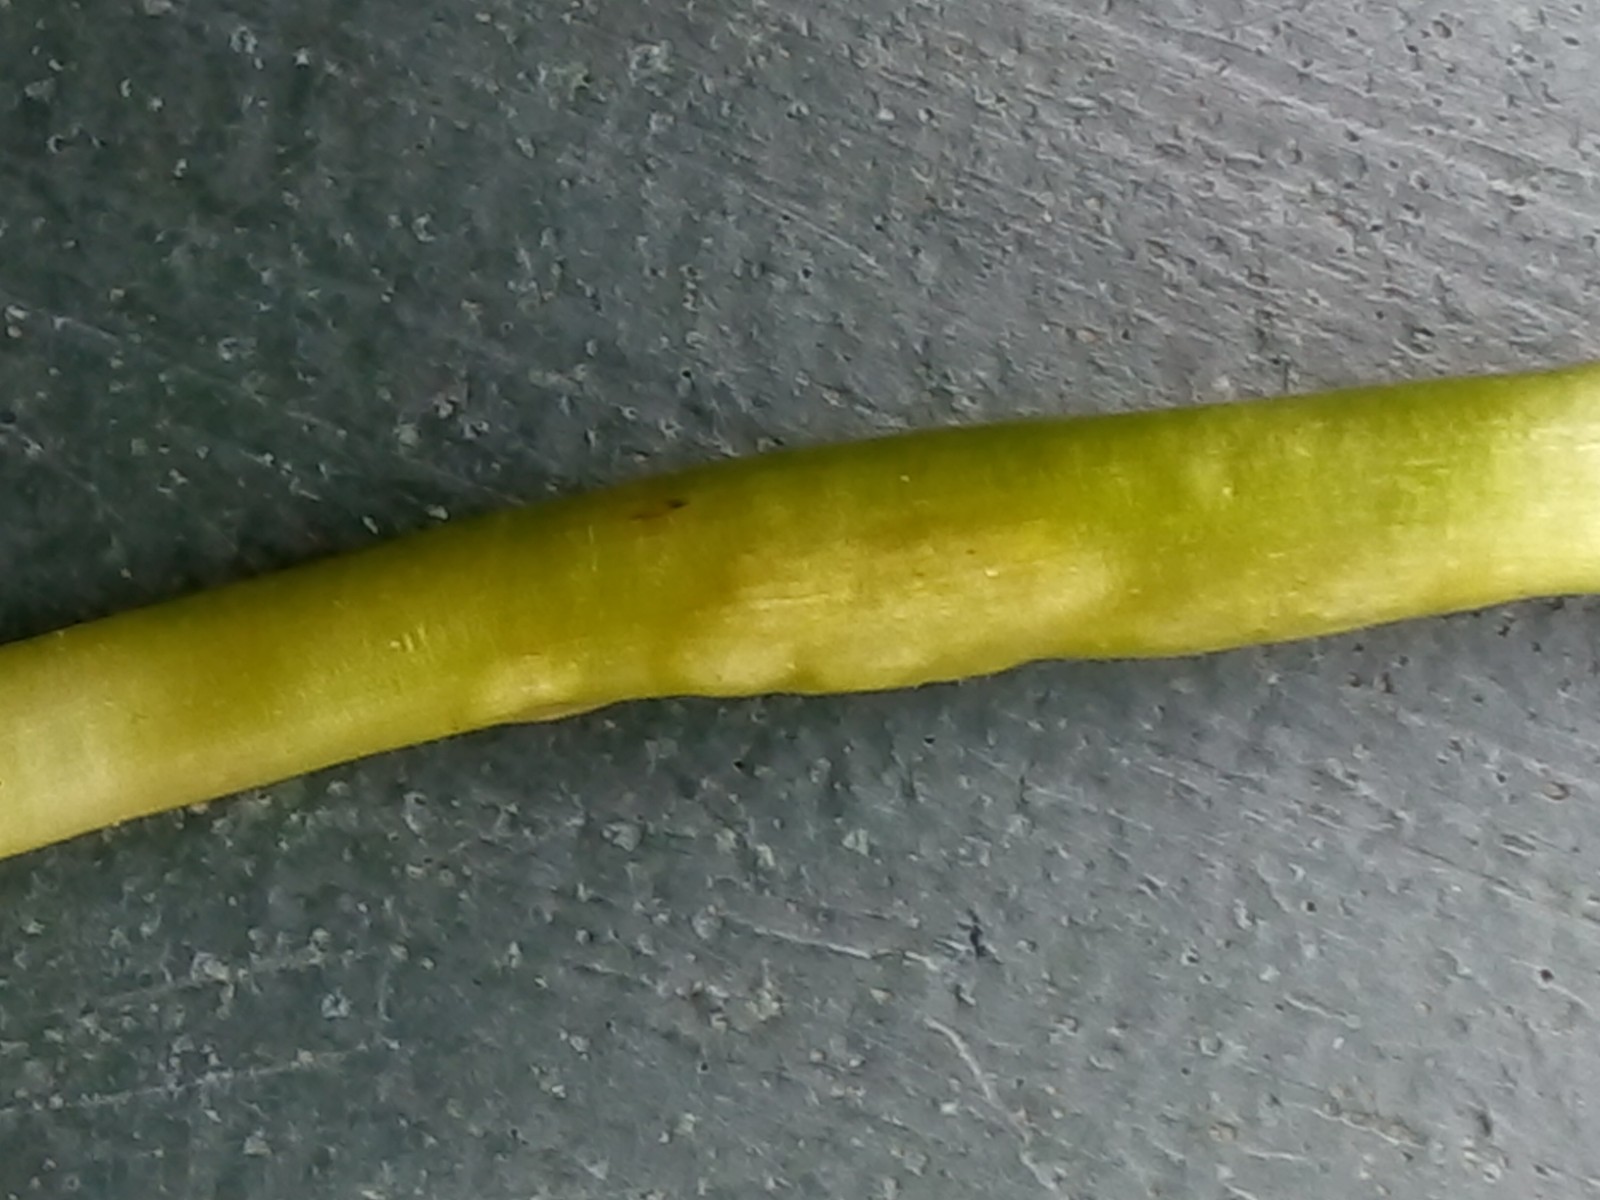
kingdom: Fungi
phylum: Basidiomycota
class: Ustilaginomycetes
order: Urocystidales
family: Urocystidaceae
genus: Urocystis
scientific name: Urocystis eranthidis
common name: erantis-brand
